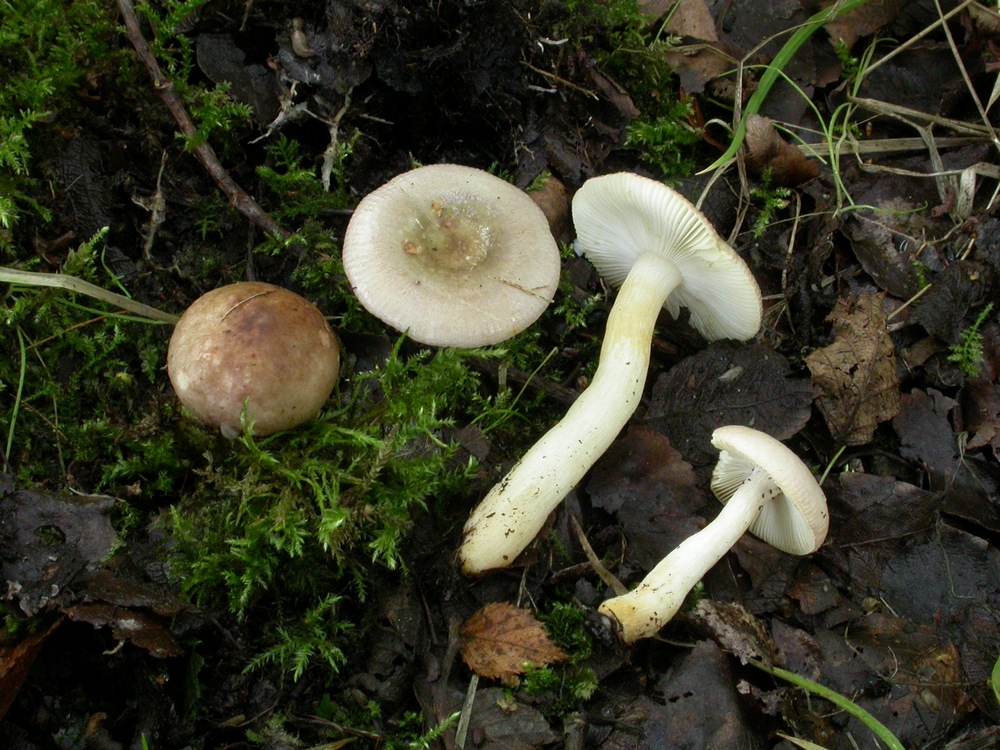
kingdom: Fungi
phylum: Basidiomycota
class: Agaricomycetes
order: Russulales
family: Russulaceae
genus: Russula
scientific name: Russula gracillima
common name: slank skørhat
